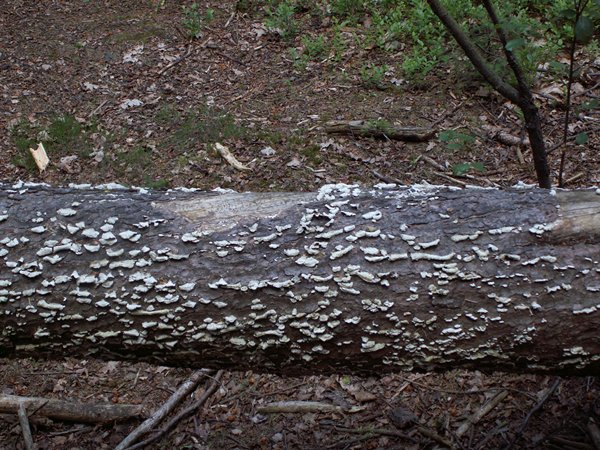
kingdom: Fungi
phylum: Basidiomycota
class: Agaricomycetes
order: Hymenochaetales
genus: Trichaptum
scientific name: Trichaptum abietinum
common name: almindelig violporesvamp
